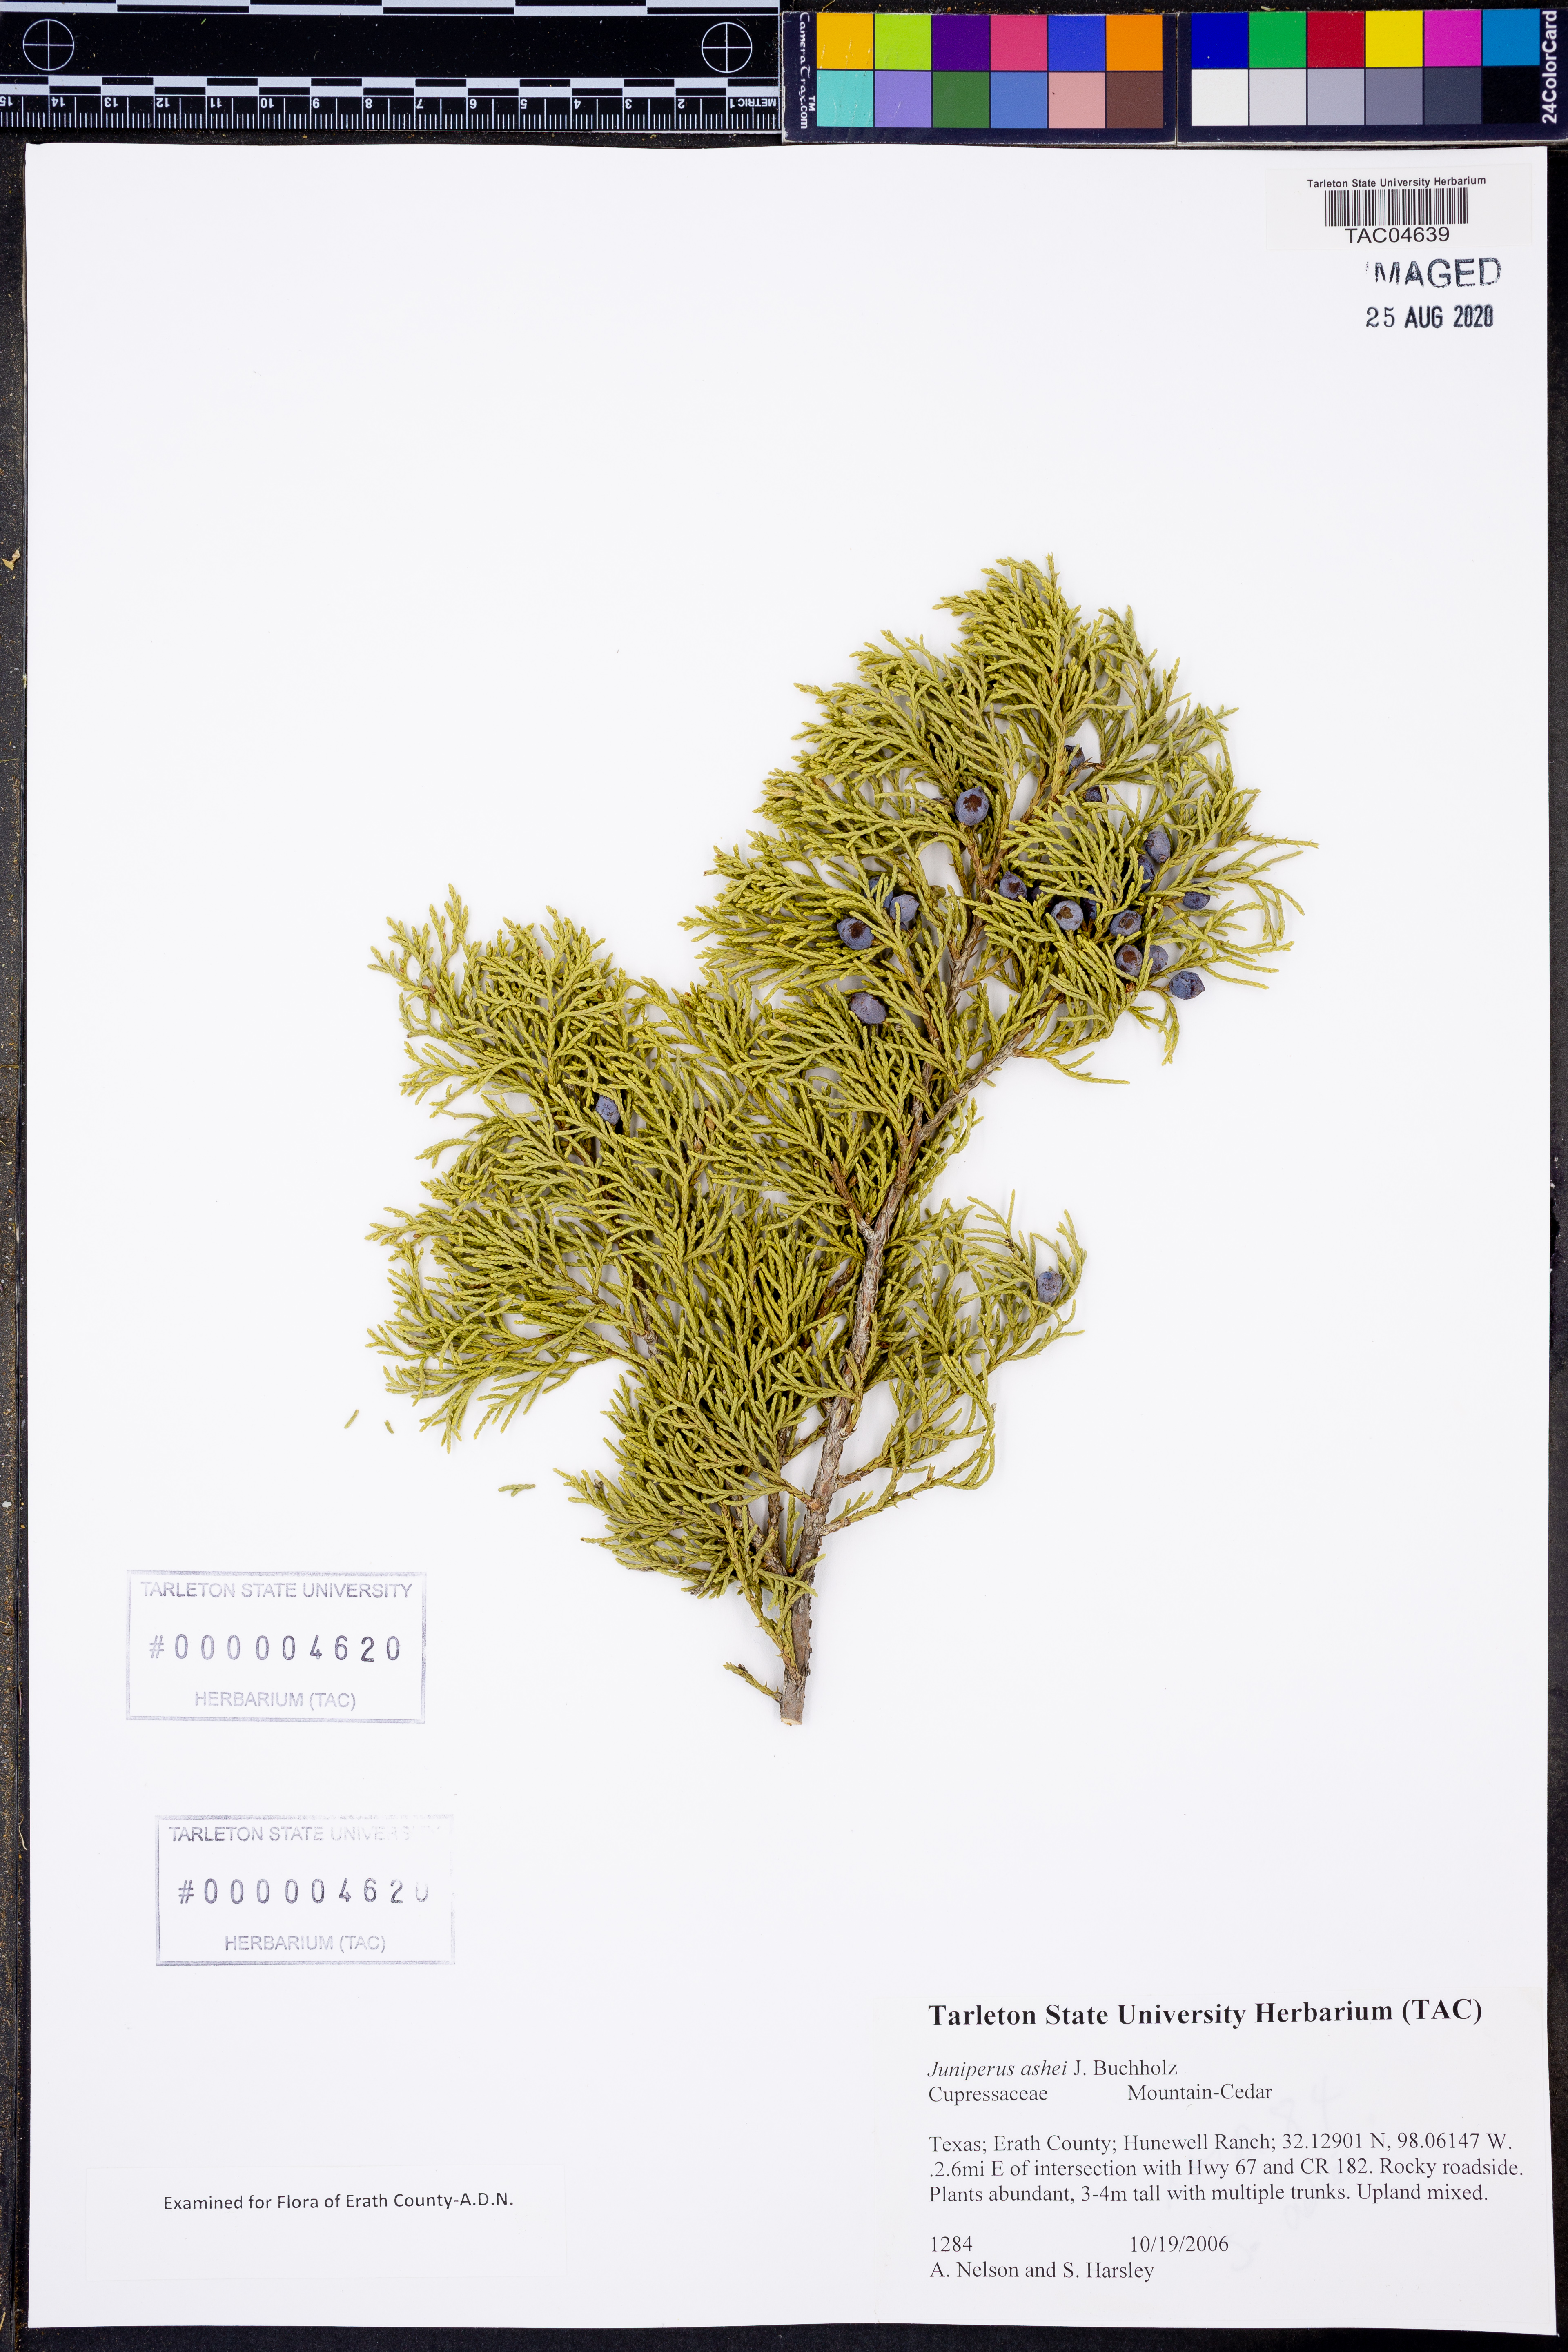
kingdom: Plantae
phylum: Tracheophyta
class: Pinopsida
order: Pinales
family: Cupressaceae
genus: Juniperus
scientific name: Juniperus ashei
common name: Mexican juniper
